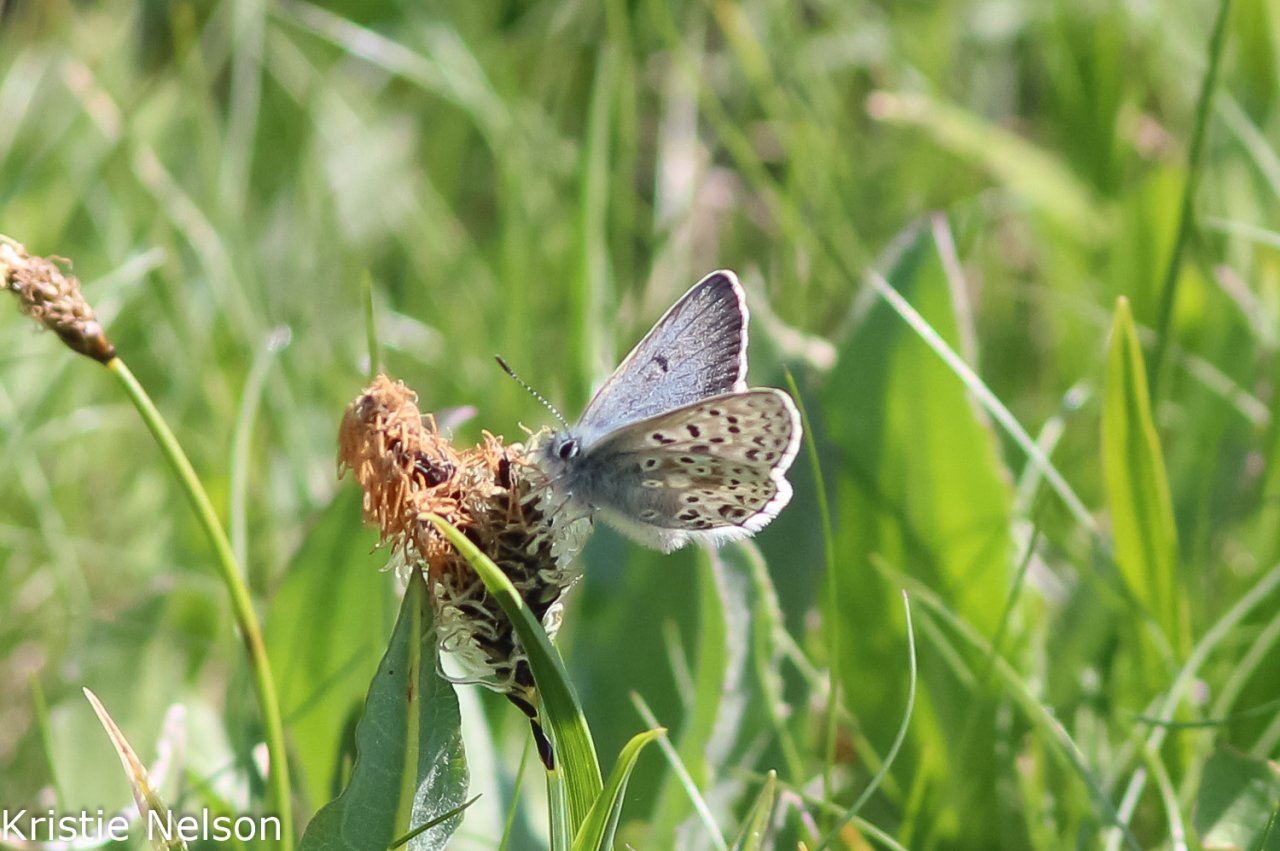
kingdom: Animalia
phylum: Arthropoda
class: Insecta
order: Lepidoptera
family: Lycaenidae
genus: Cupido
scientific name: Cupido podarce
